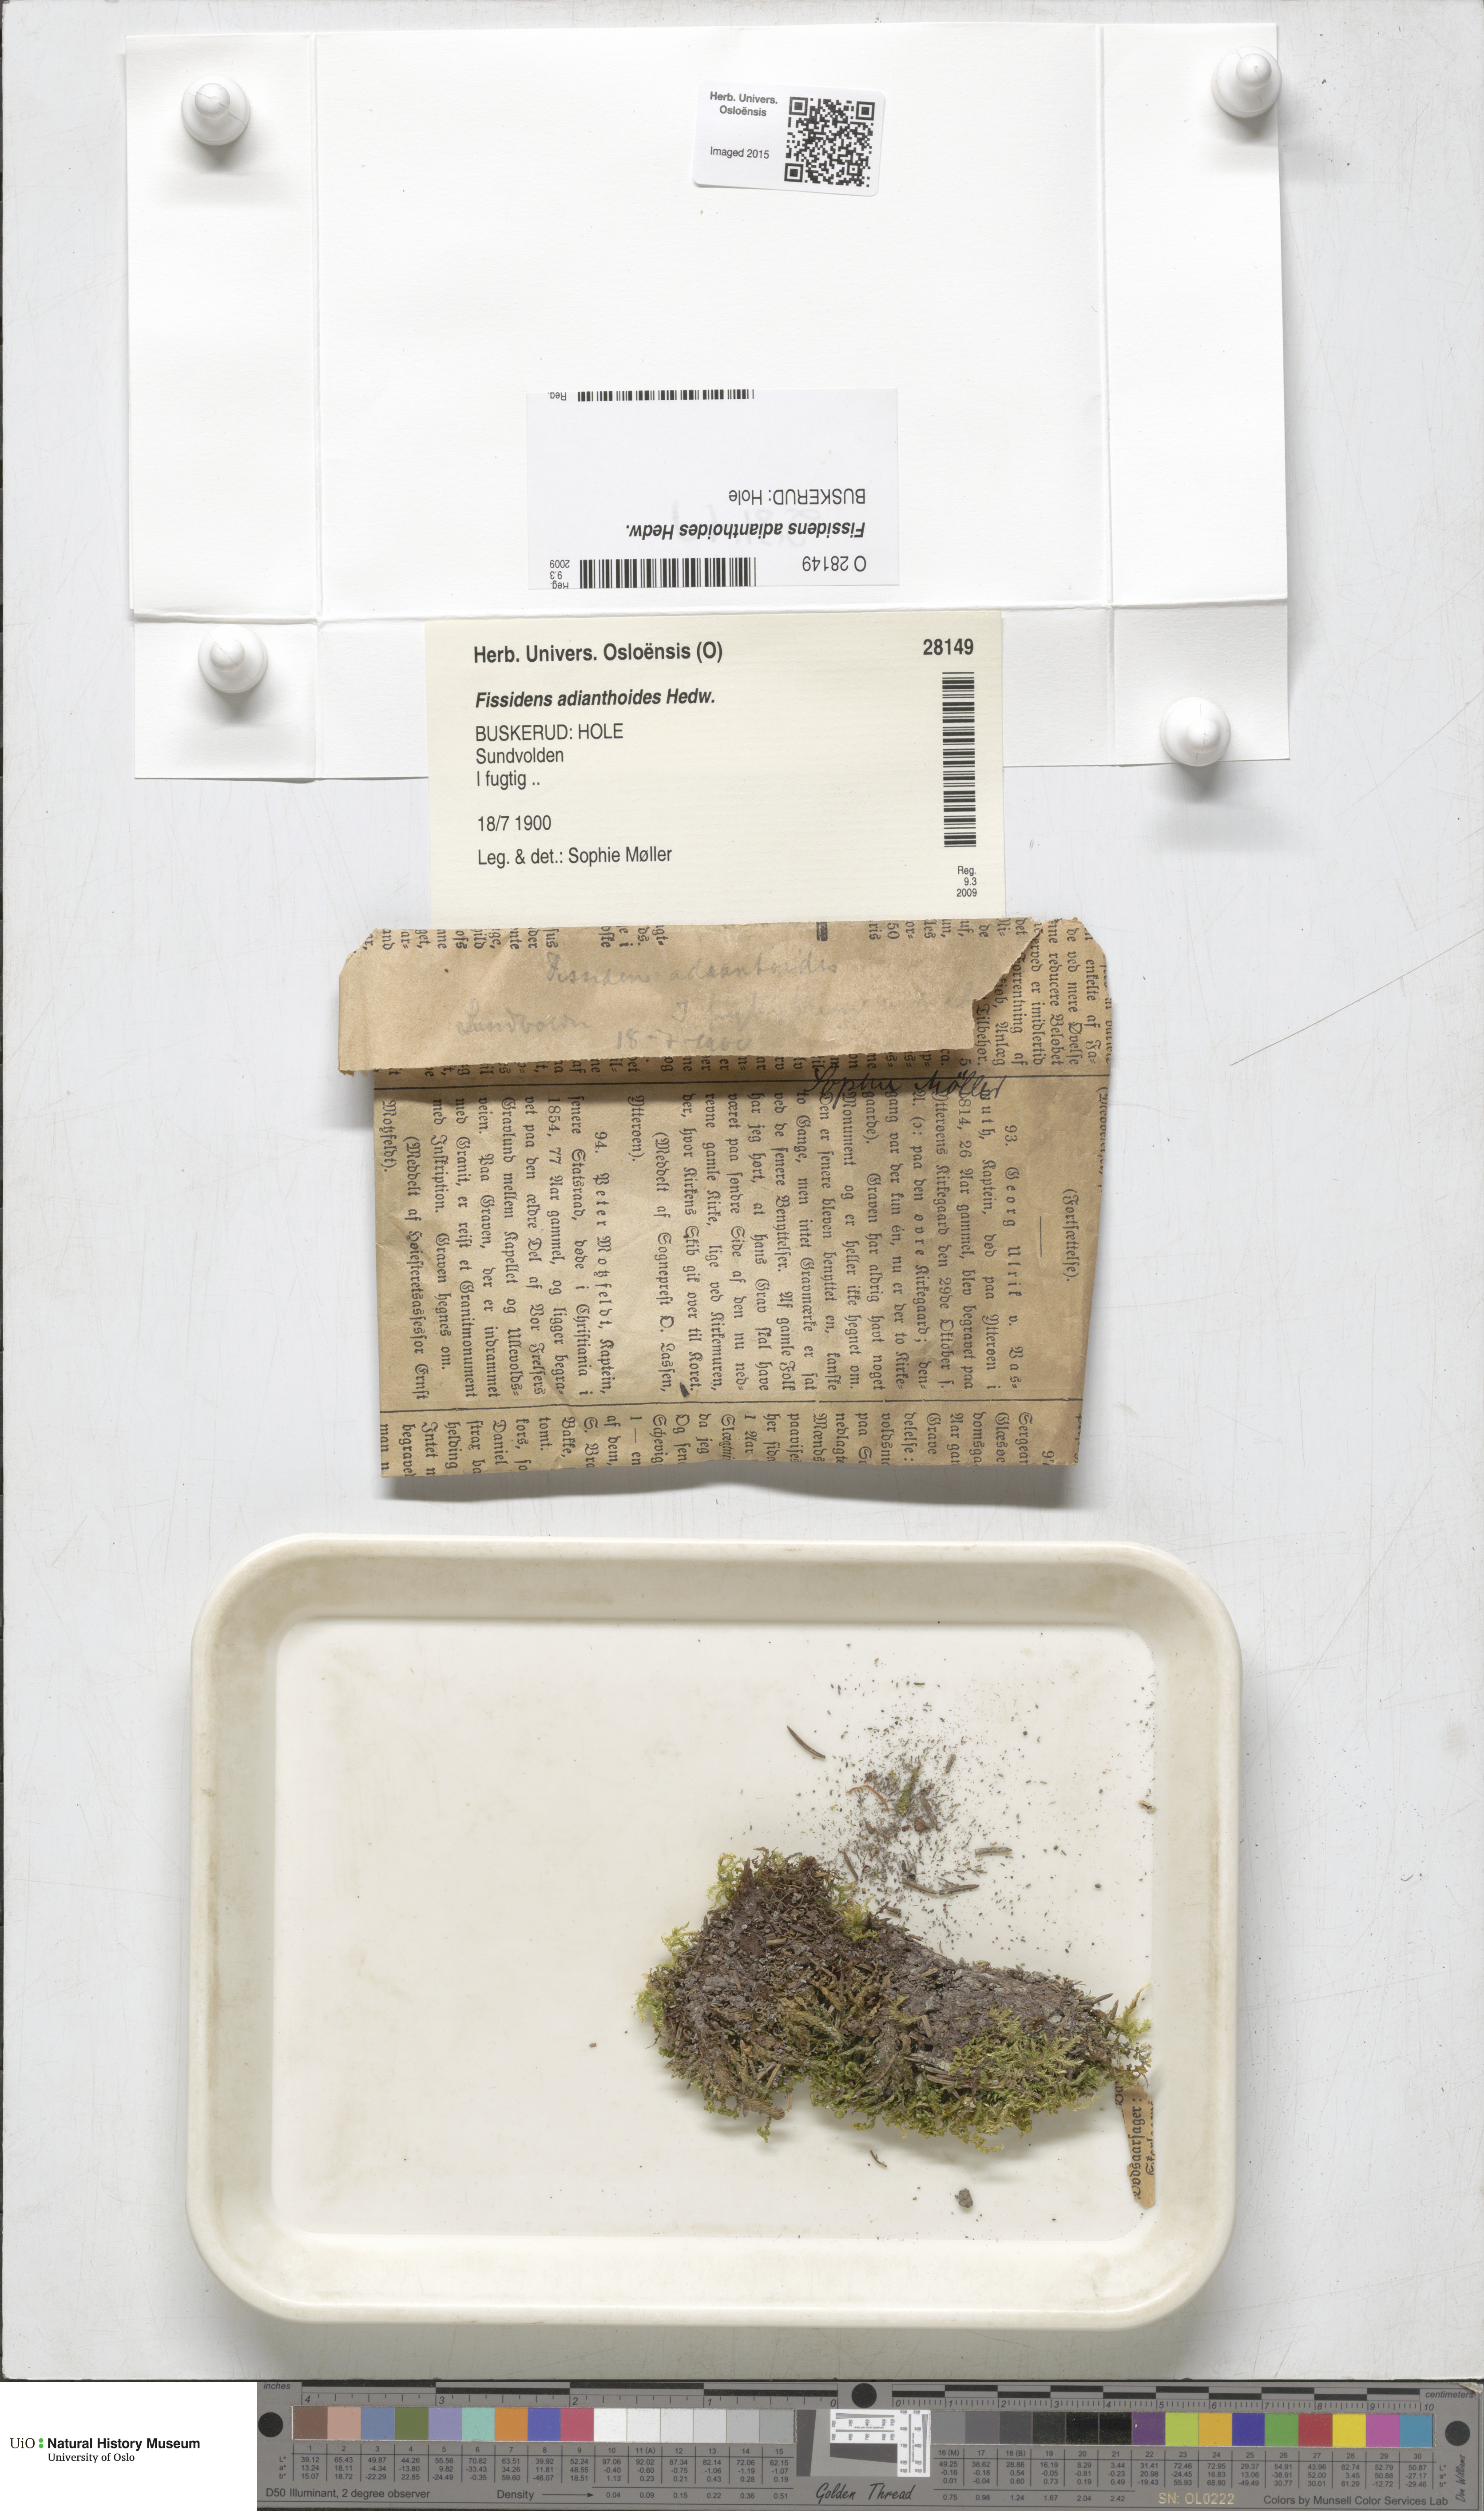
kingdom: Plantae
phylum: Bryophyta
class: Bryopsida
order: Dicranales
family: Fissidentaceae
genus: Fissidens
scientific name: Fissidens adianthoides
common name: Maidenhair pocket moss
